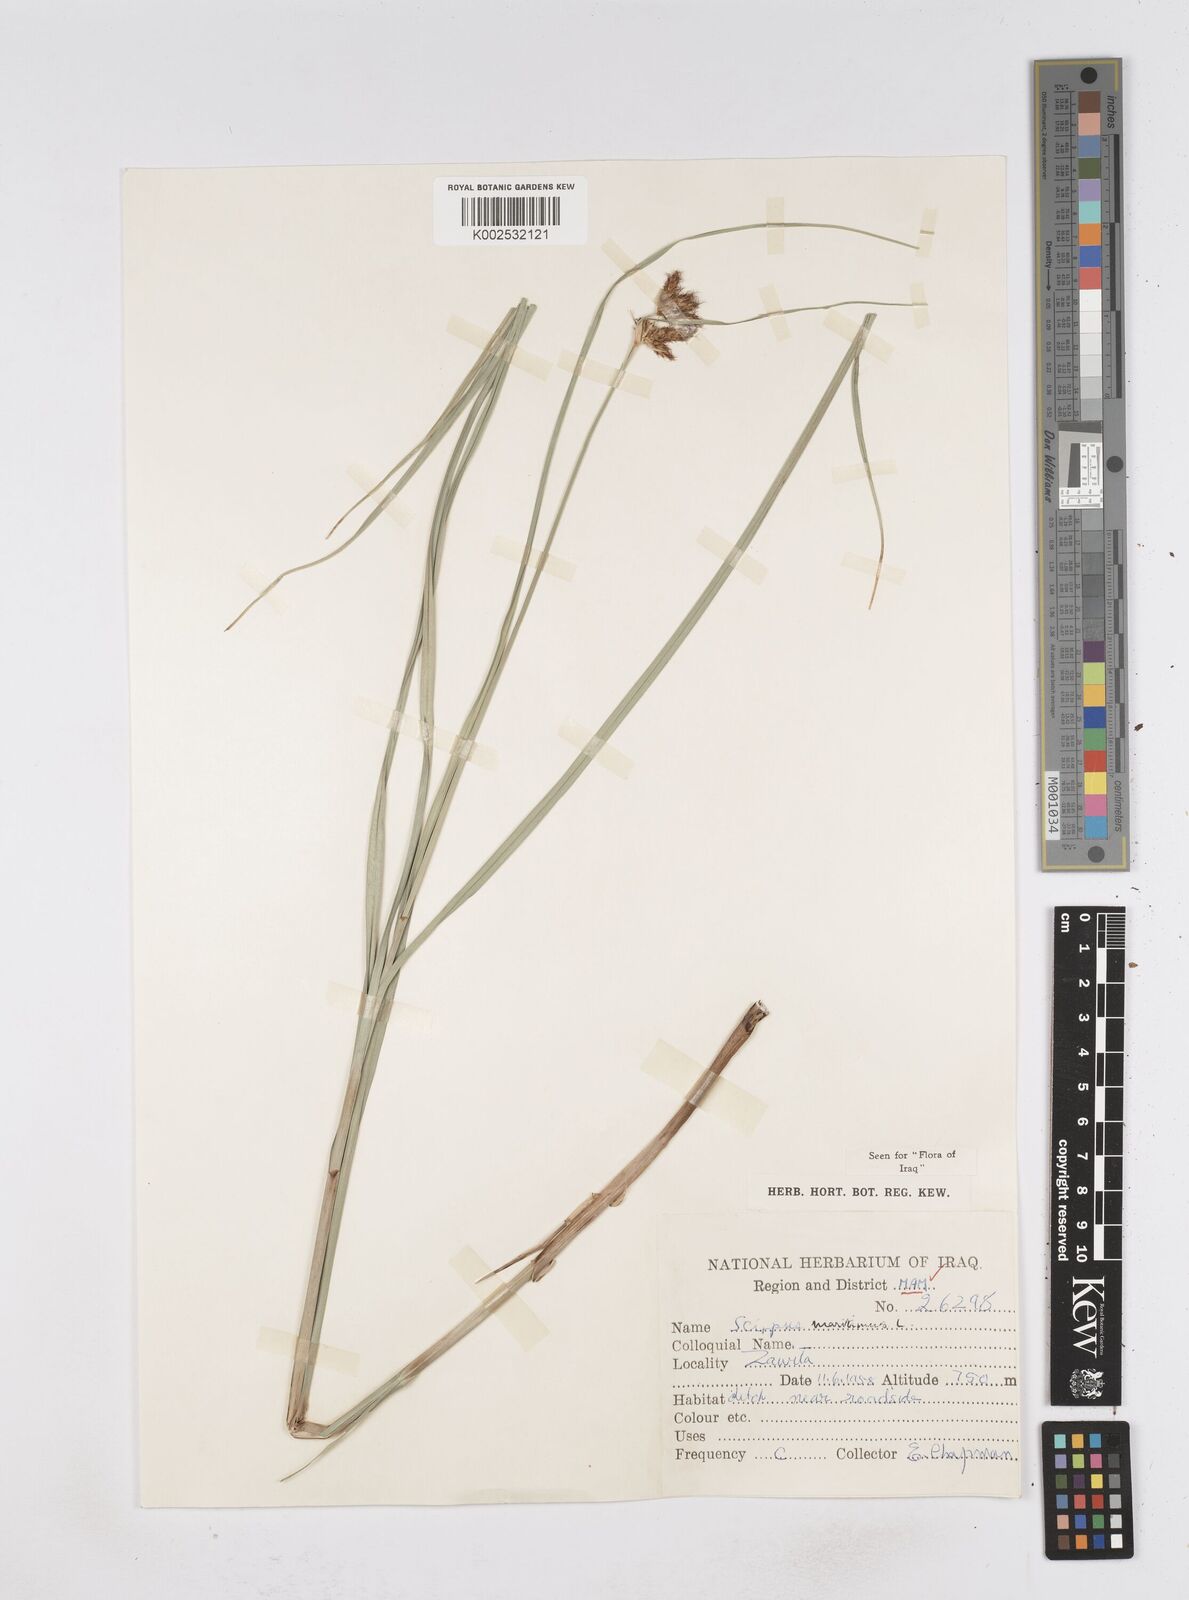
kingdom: Plantae
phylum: Tracheophyta
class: Liliopsida
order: Poales
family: Cyperaceae
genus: Bolboschoenus
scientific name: Bolboschoenus maritimus
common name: Sea club-rush
